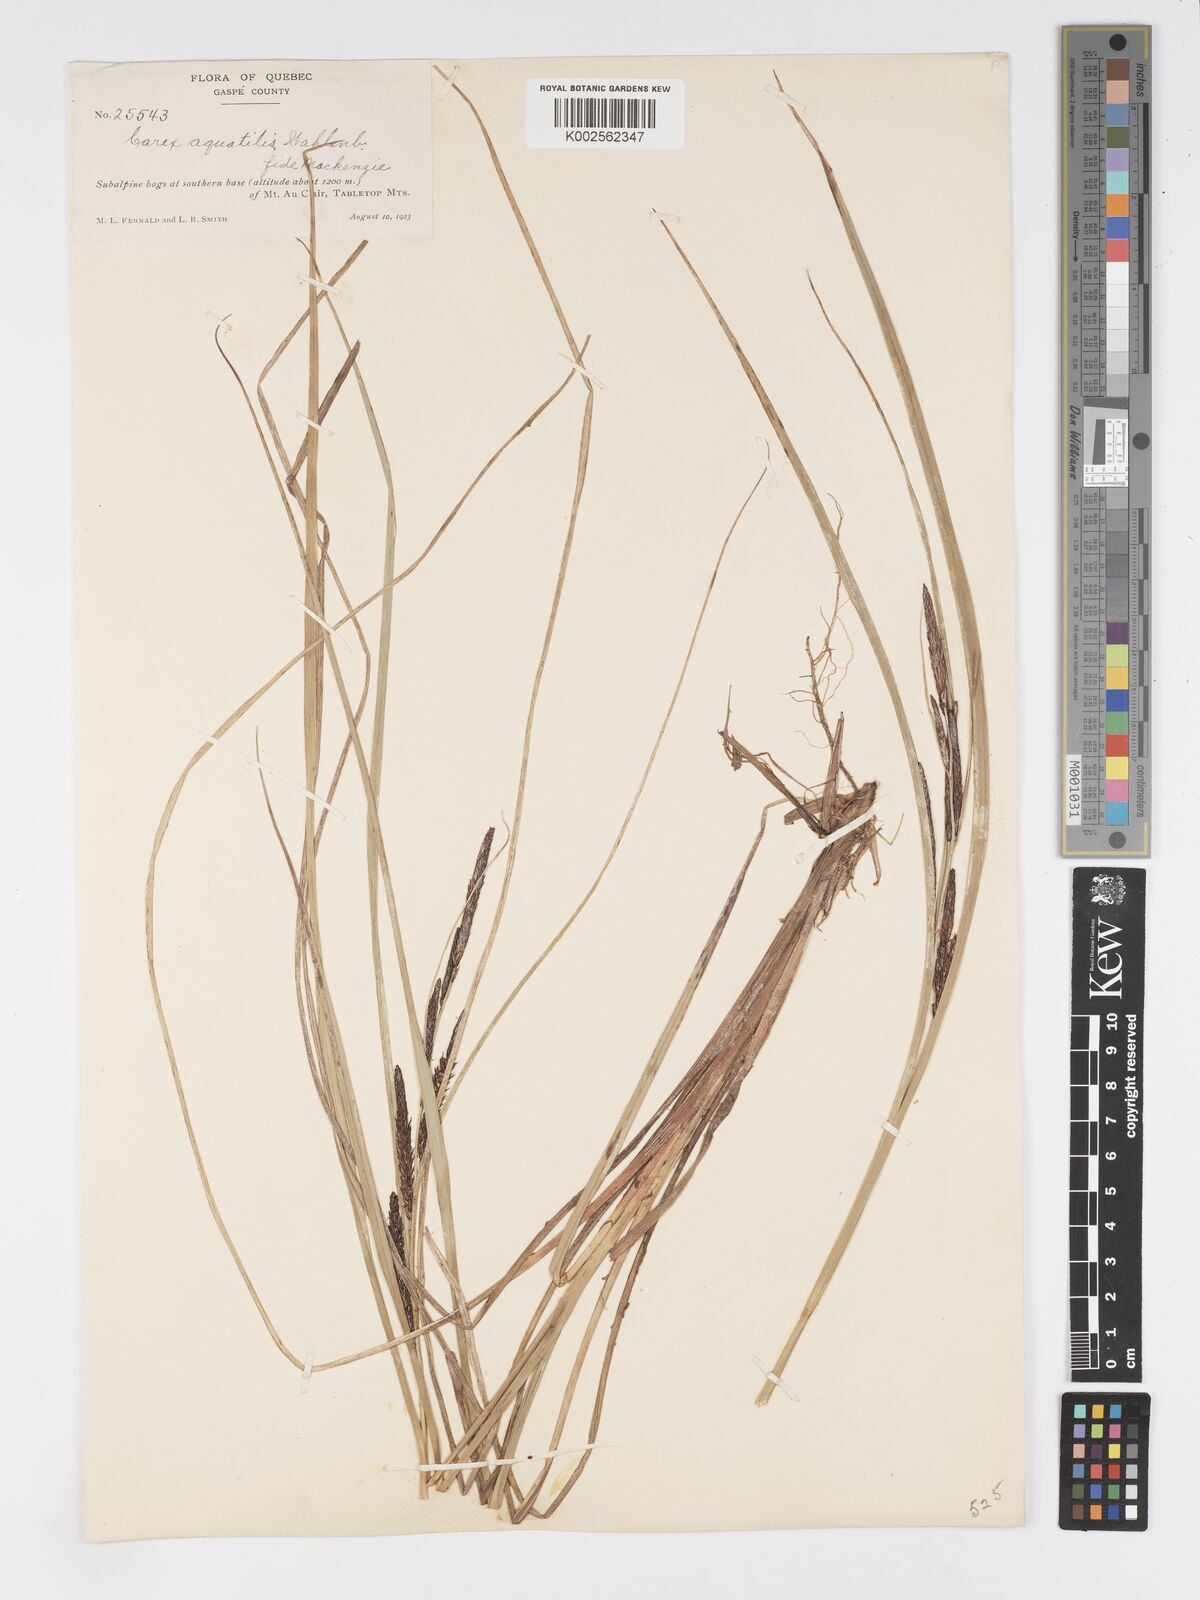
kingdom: Plantae
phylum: Tracheophyta
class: Liliopsida
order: Poales
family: Cyperaceae
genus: Carex
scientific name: Carex aquatilis
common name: Water sedge
